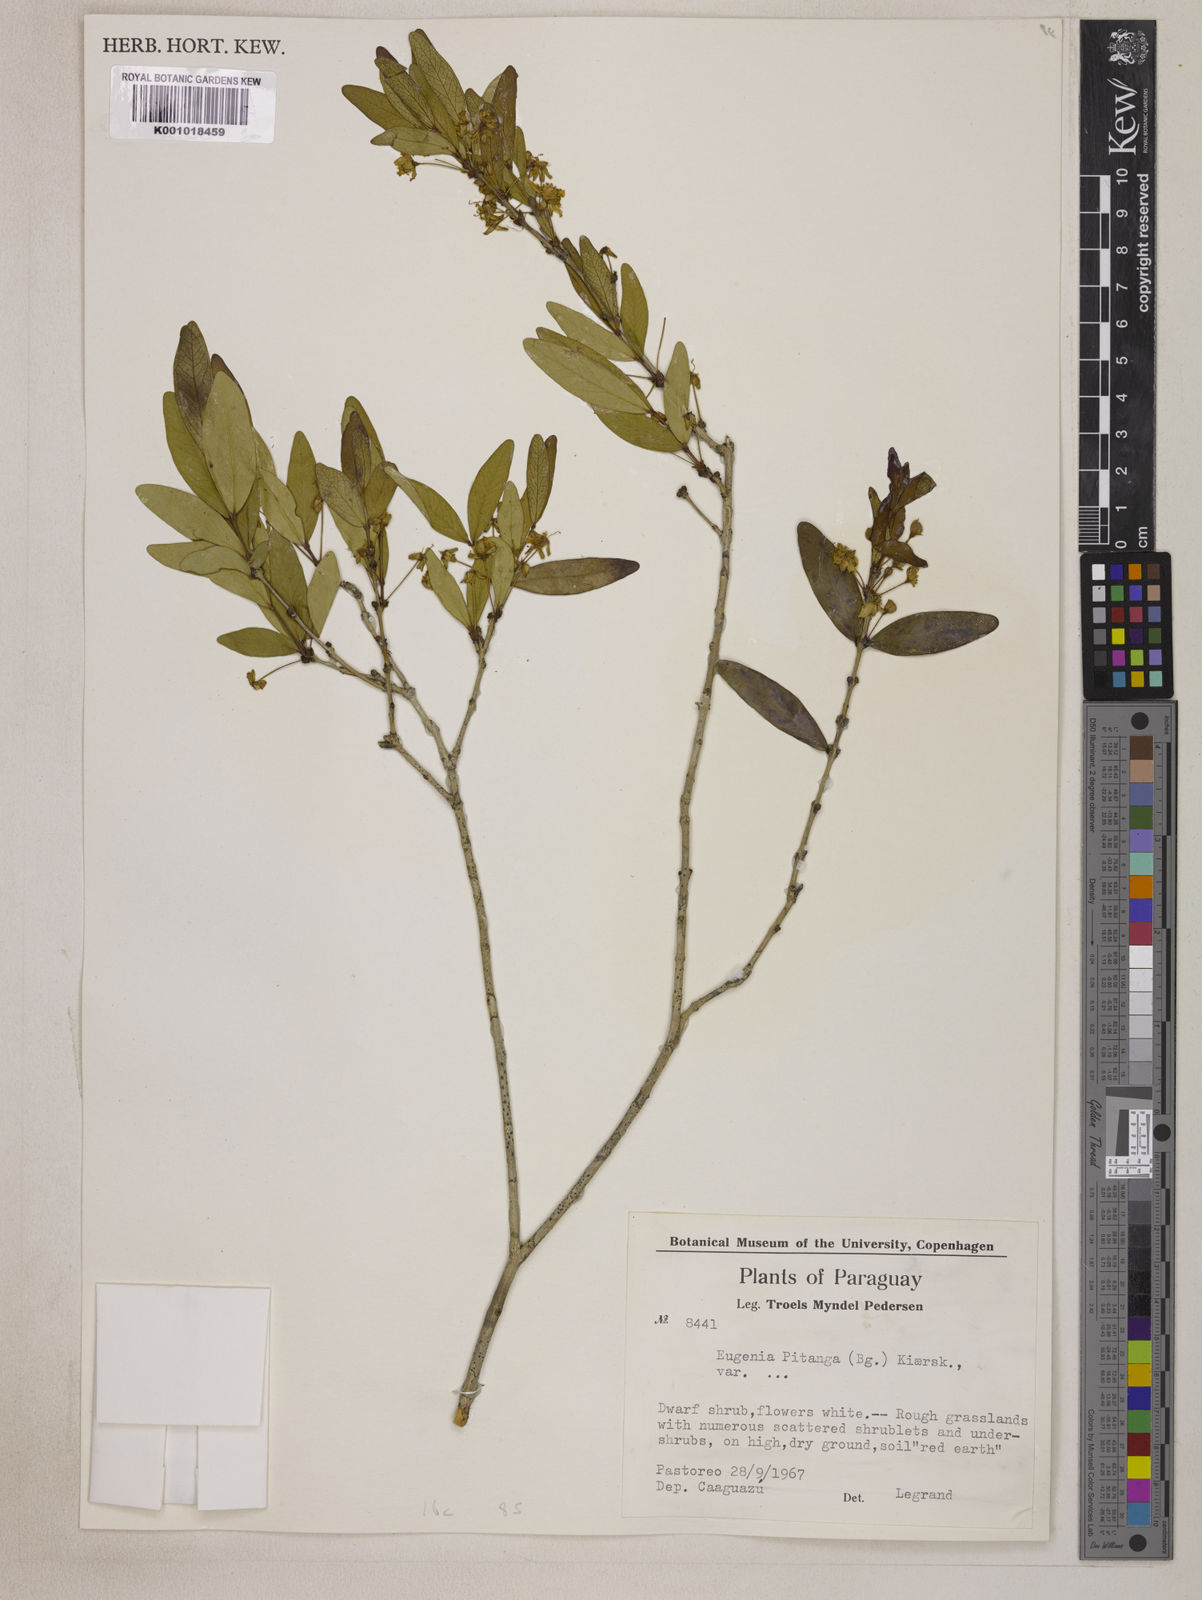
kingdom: Plantae
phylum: Tracheophyta
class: Magnoliopsida
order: Myrtales
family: Myrtaceae
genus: Eugenia
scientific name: Eugenia
